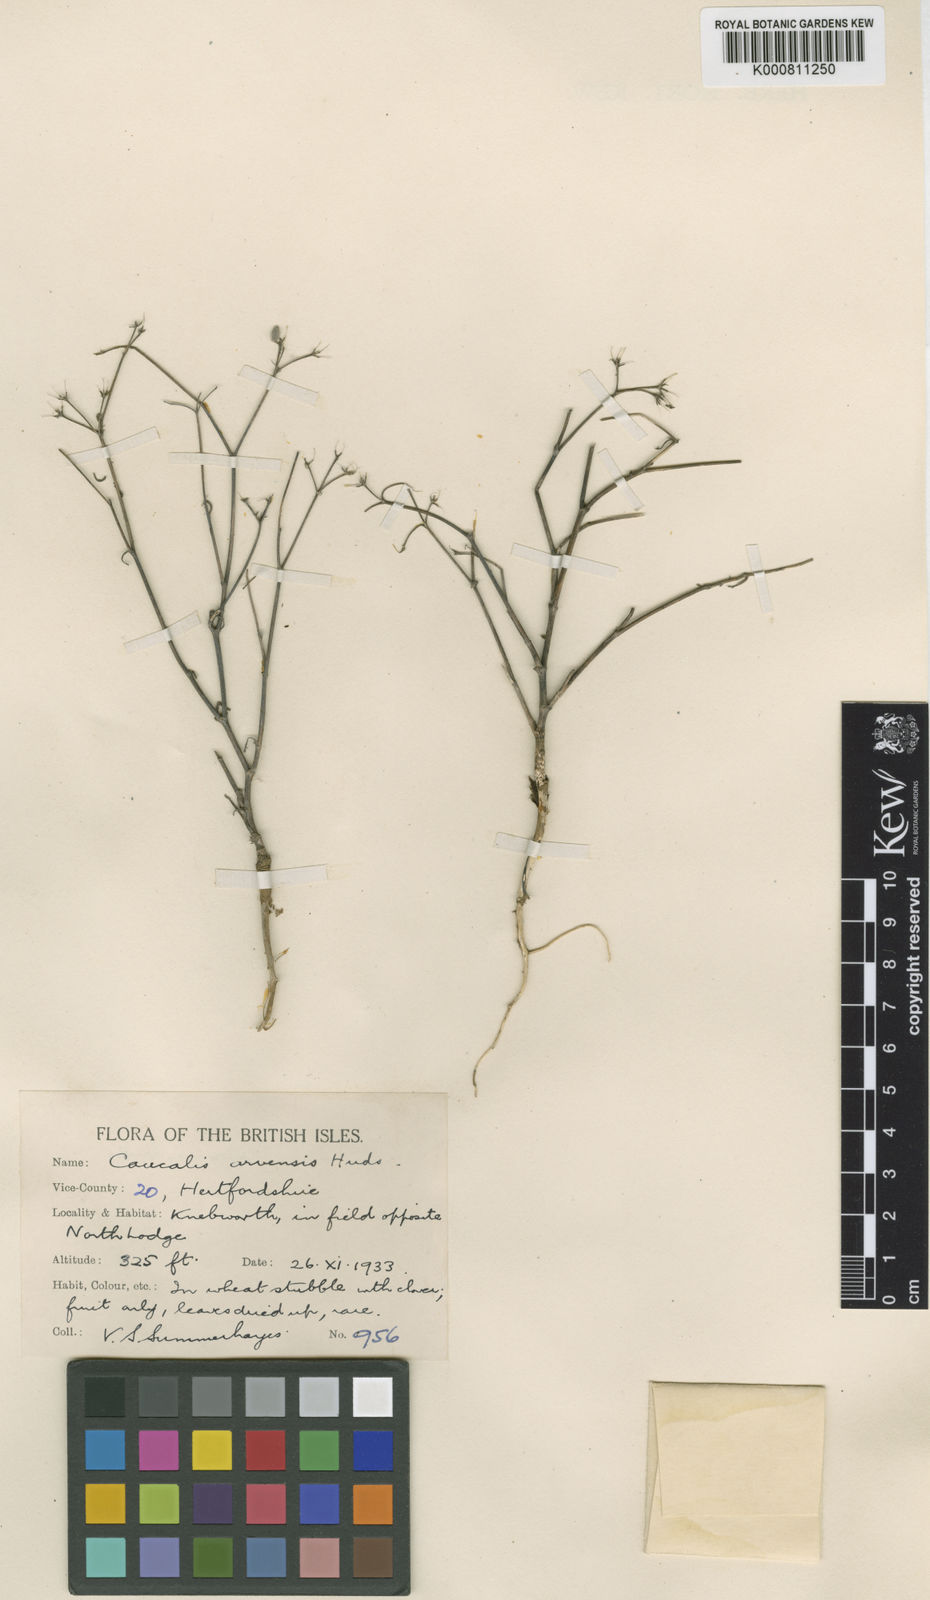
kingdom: Plantae
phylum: Tracheophyta
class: Magnoliopsida
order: Apiales
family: Apiaceae
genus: Torilis
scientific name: Torilis arvensis
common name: Spreading hedge-parsley
